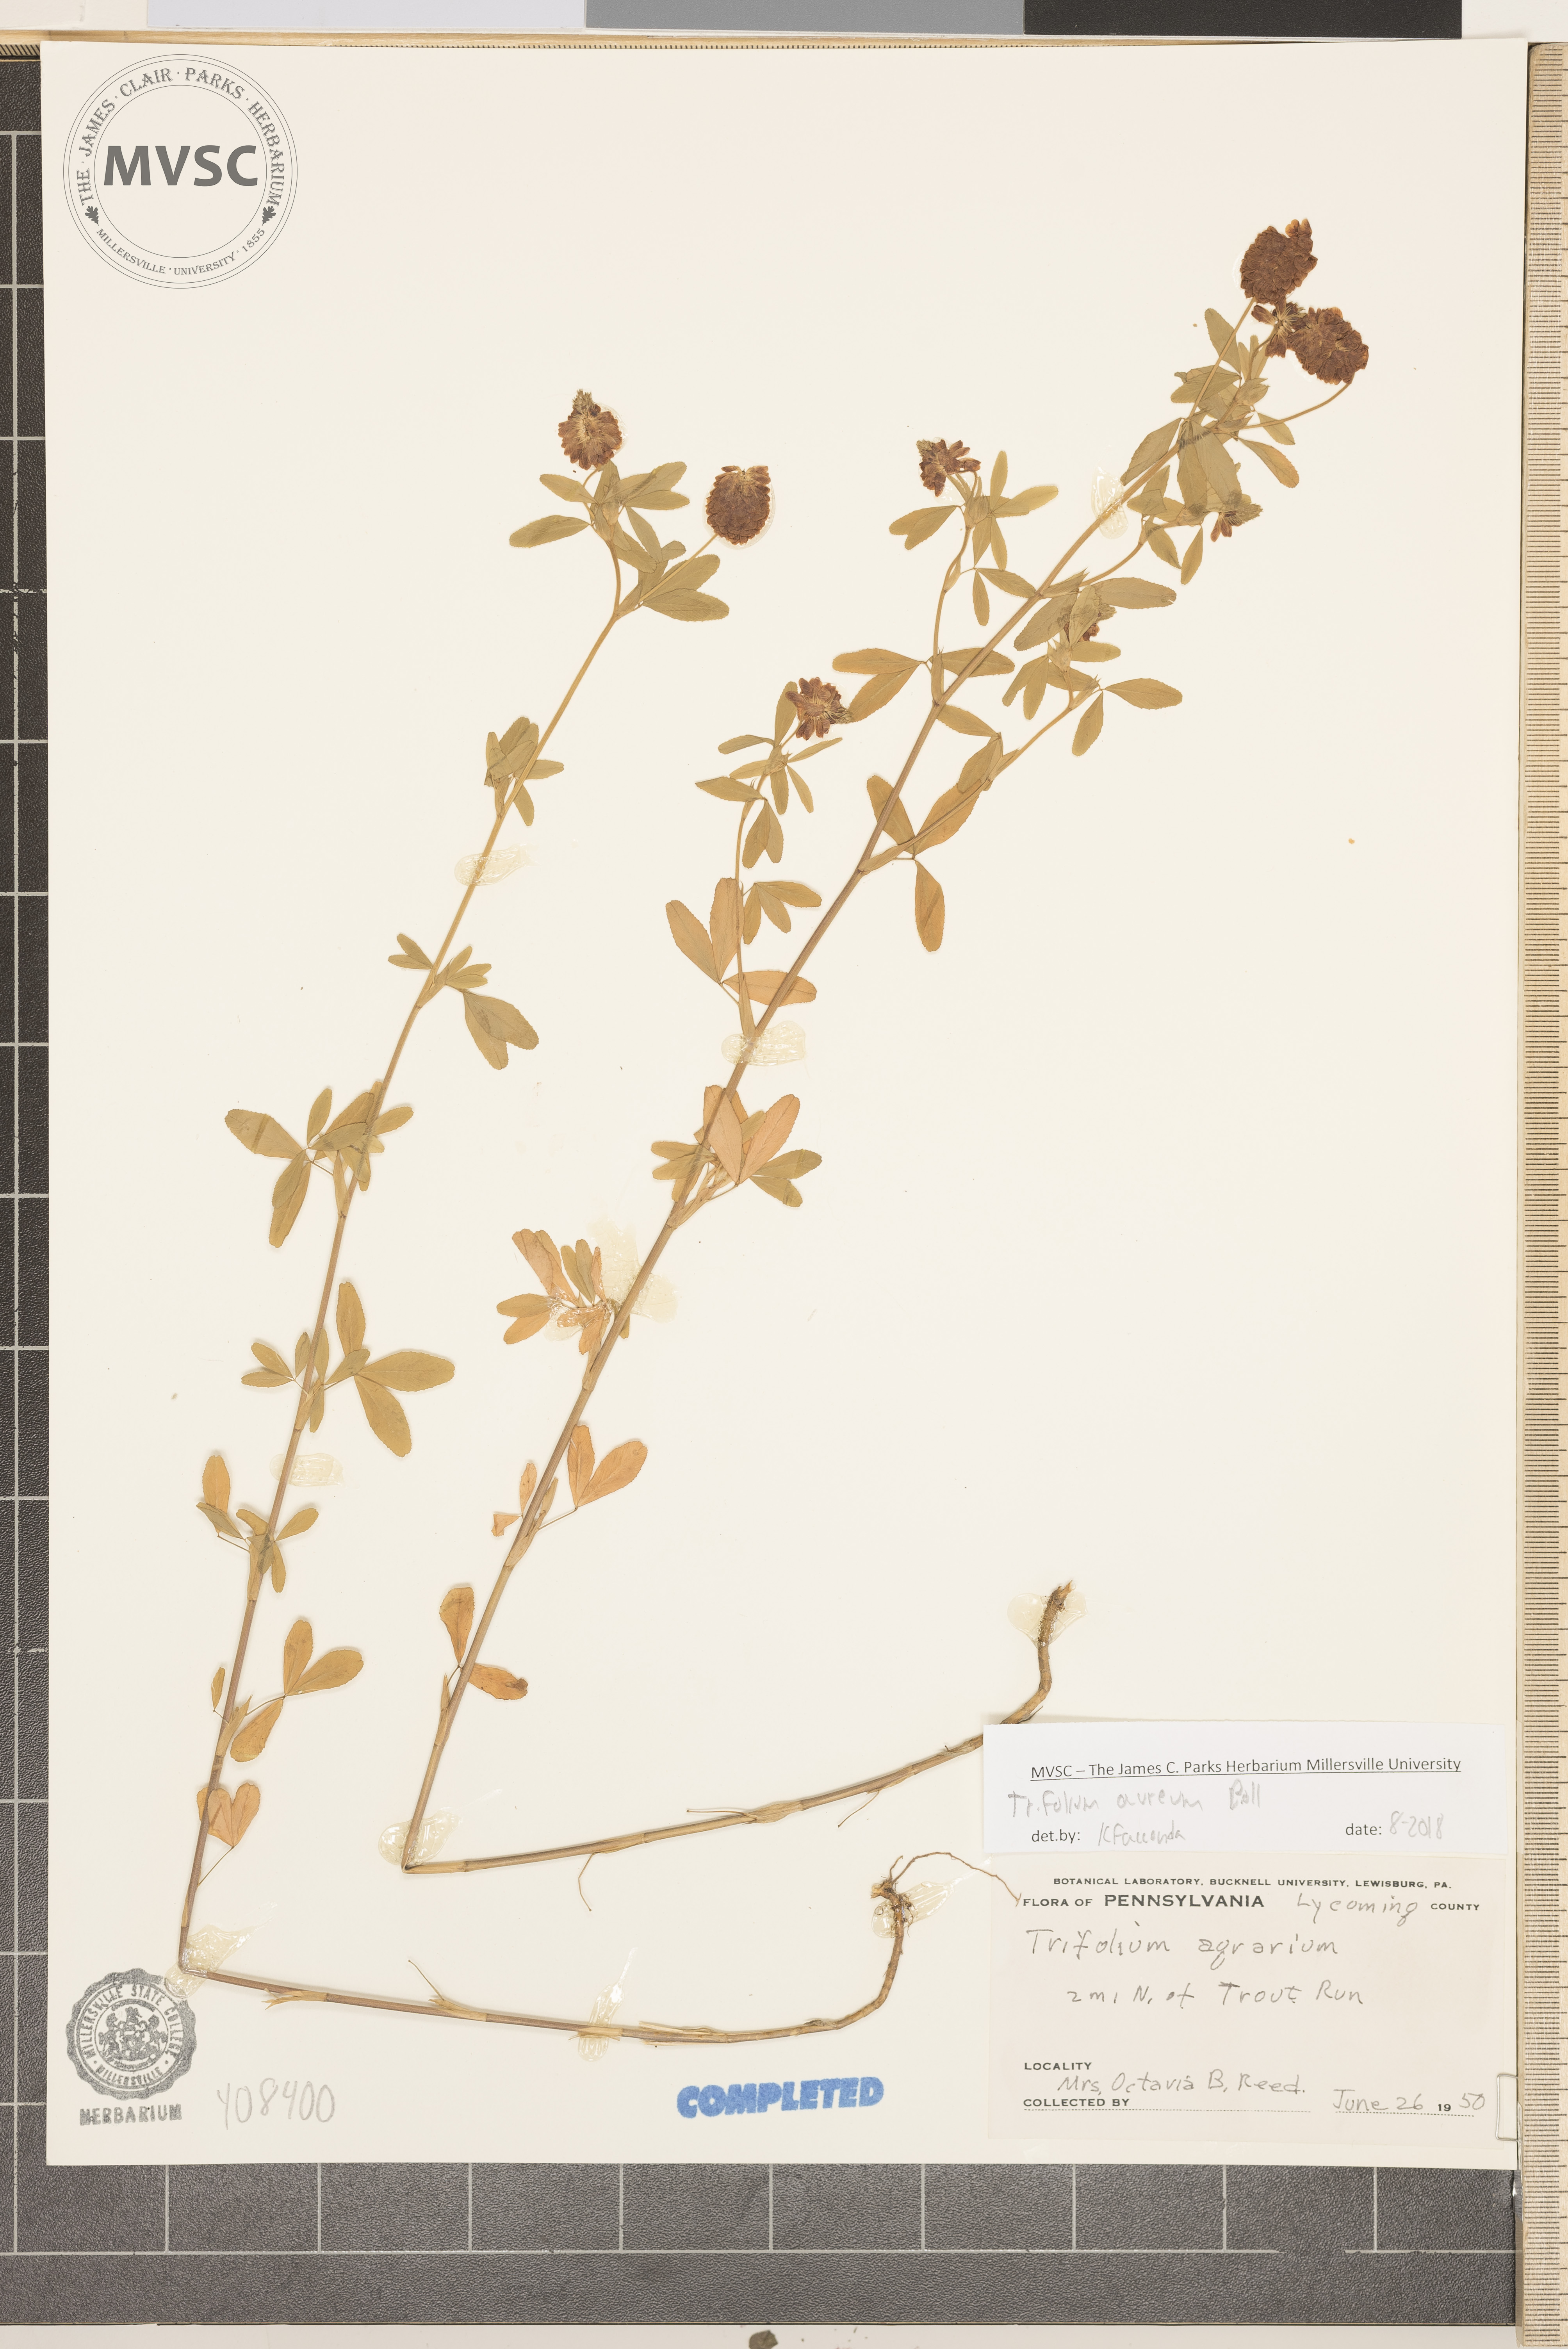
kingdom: Plantae
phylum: Tracheophyta
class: Magnoliopsida
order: Fabales
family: Fabaceae
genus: Trifolium
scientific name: Trifolium aureum
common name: Golden clover
